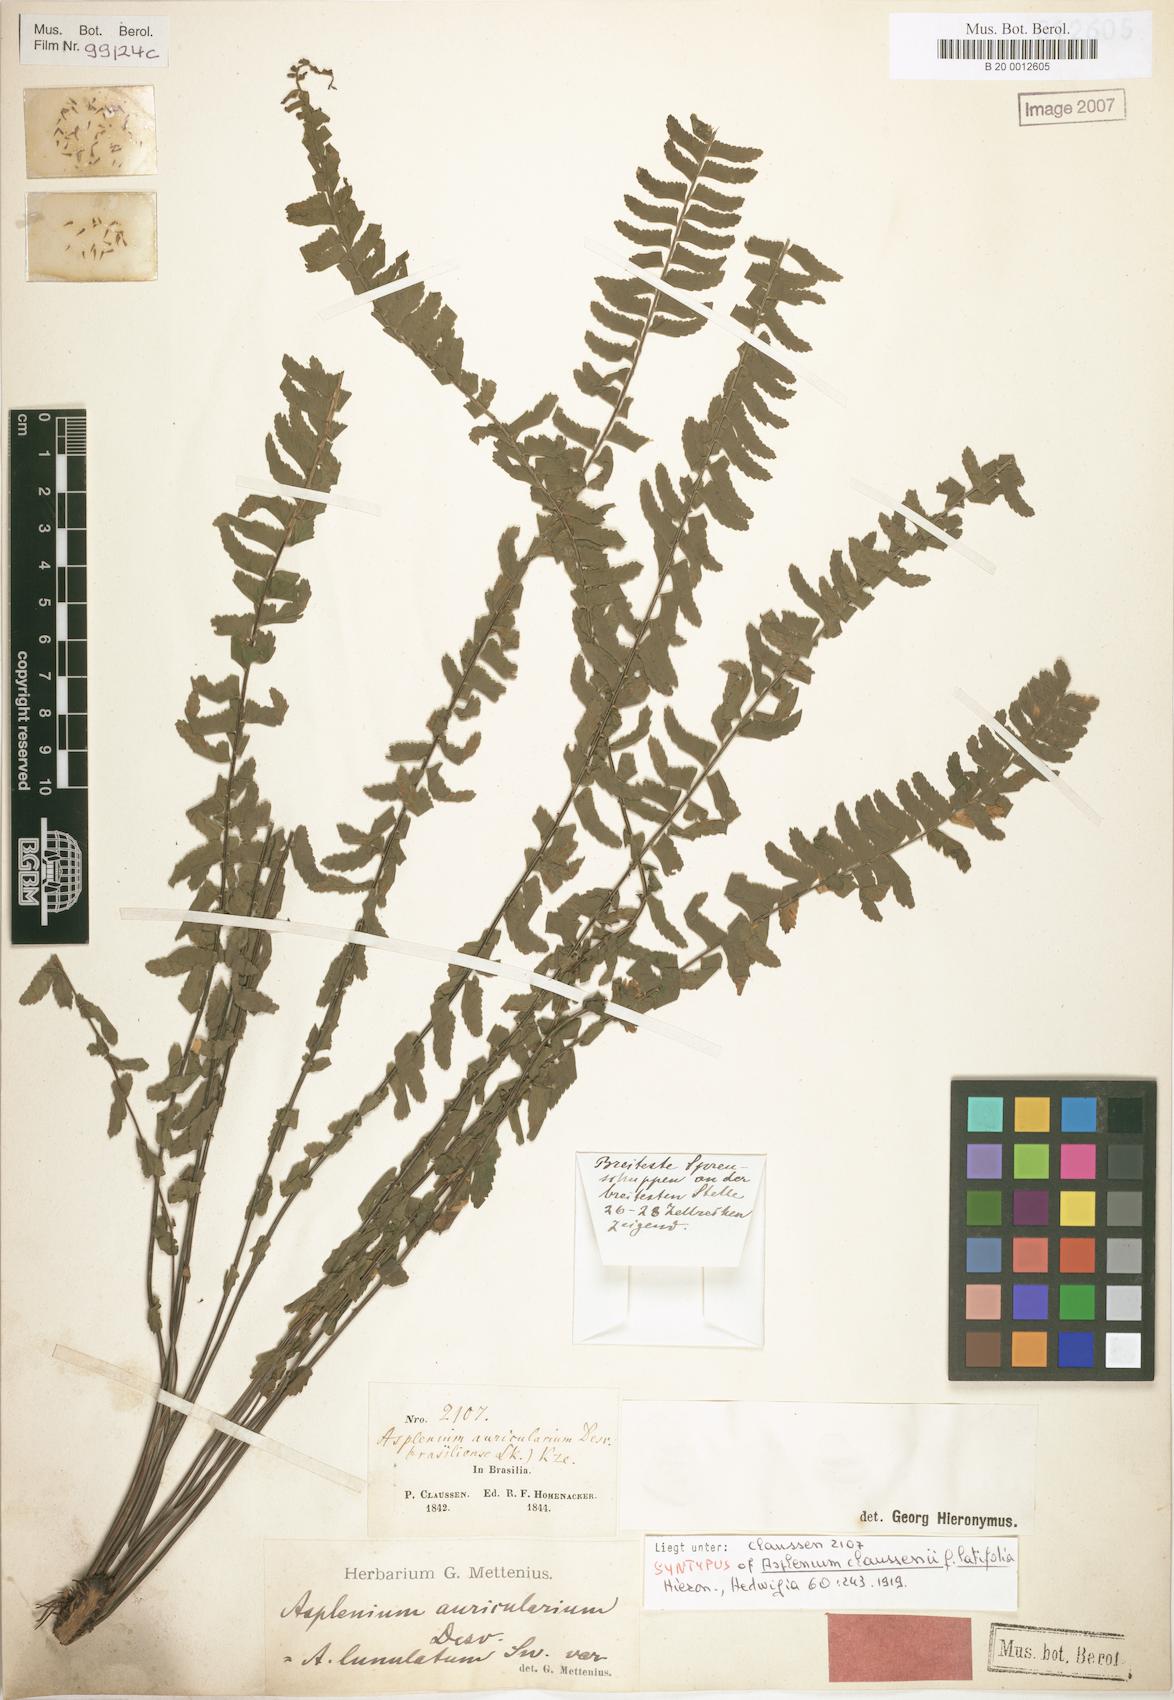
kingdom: Plantae
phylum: Tracheophyta
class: Polypodiopsida
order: Polypodiales
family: Aspleniaceae
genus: Asplenium
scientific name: Asplenium claussenii
